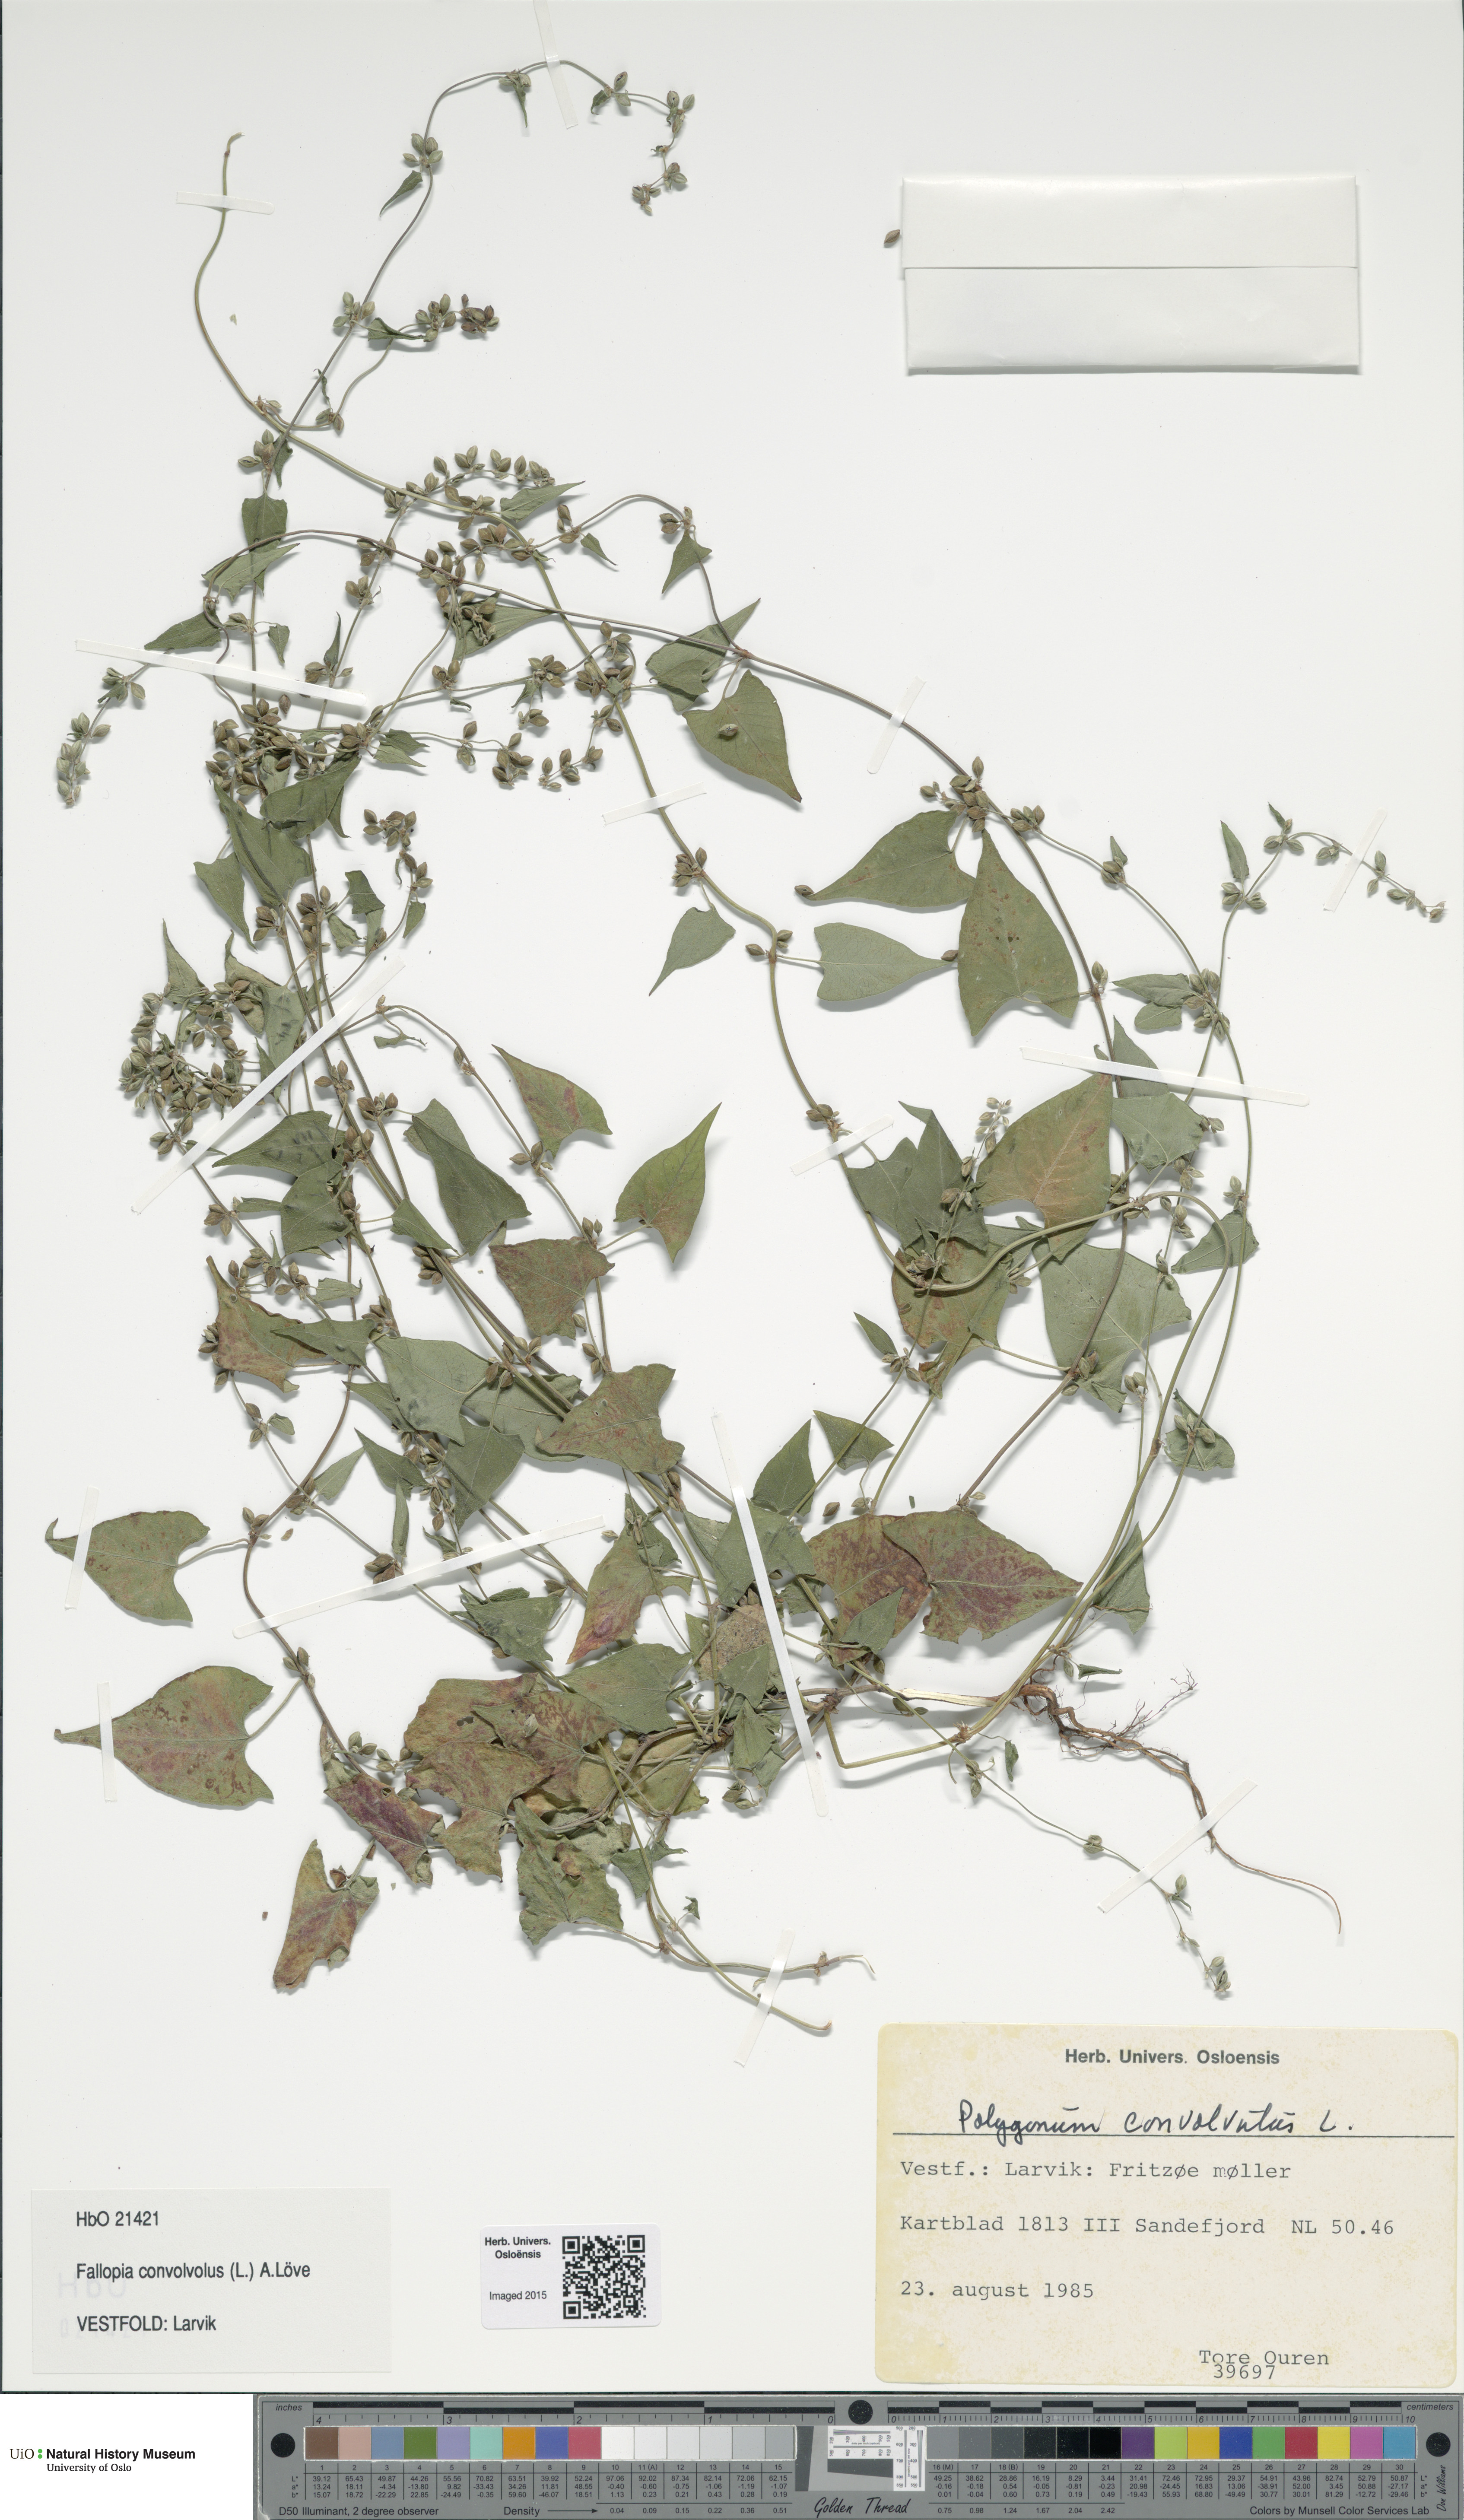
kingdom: Plantae
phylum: Tracheophyta
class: Magnoliopsida
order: Caryophyllales
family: Polygonaceae
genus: Fallopia
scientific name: Fallopia convolvulus
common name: Black bindweed
